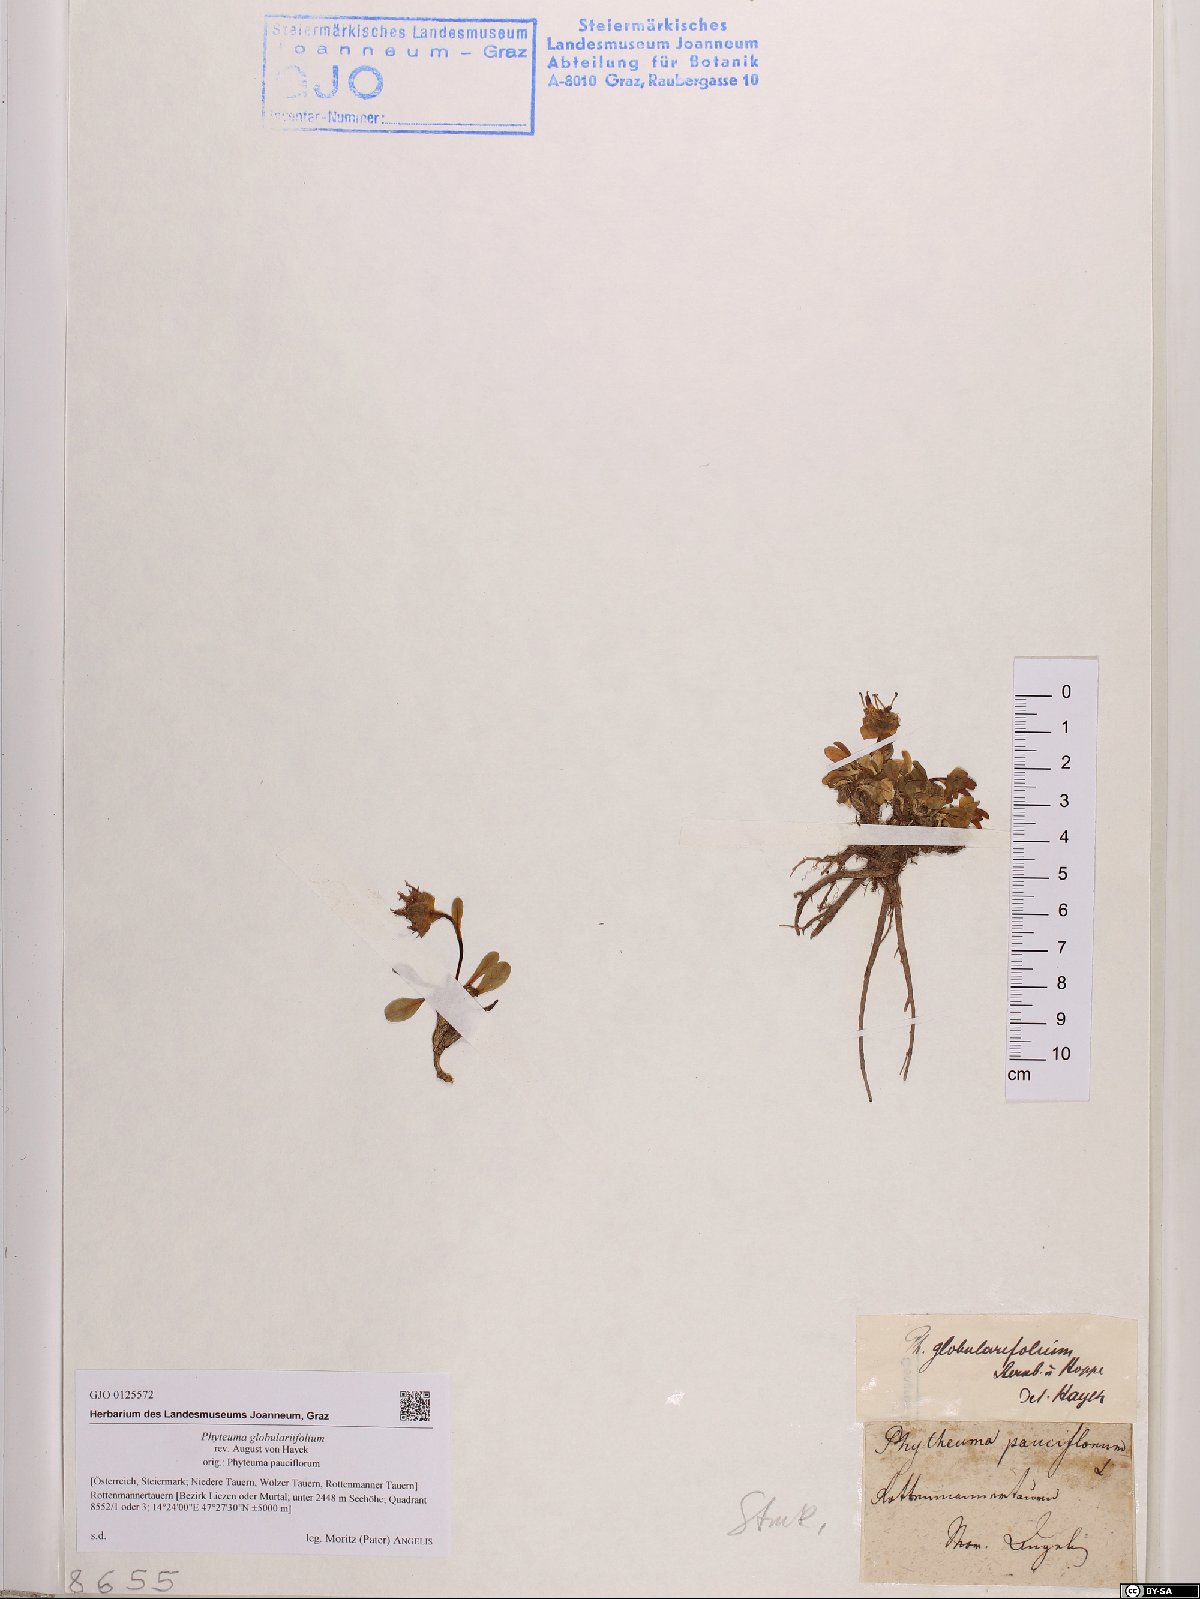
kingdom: Plantae
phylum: Tracheophyta
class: Magnoliopsida
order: Asterales
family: Campanulaceae
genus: Phyteuma
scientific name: Phyteuma globulariifolium
